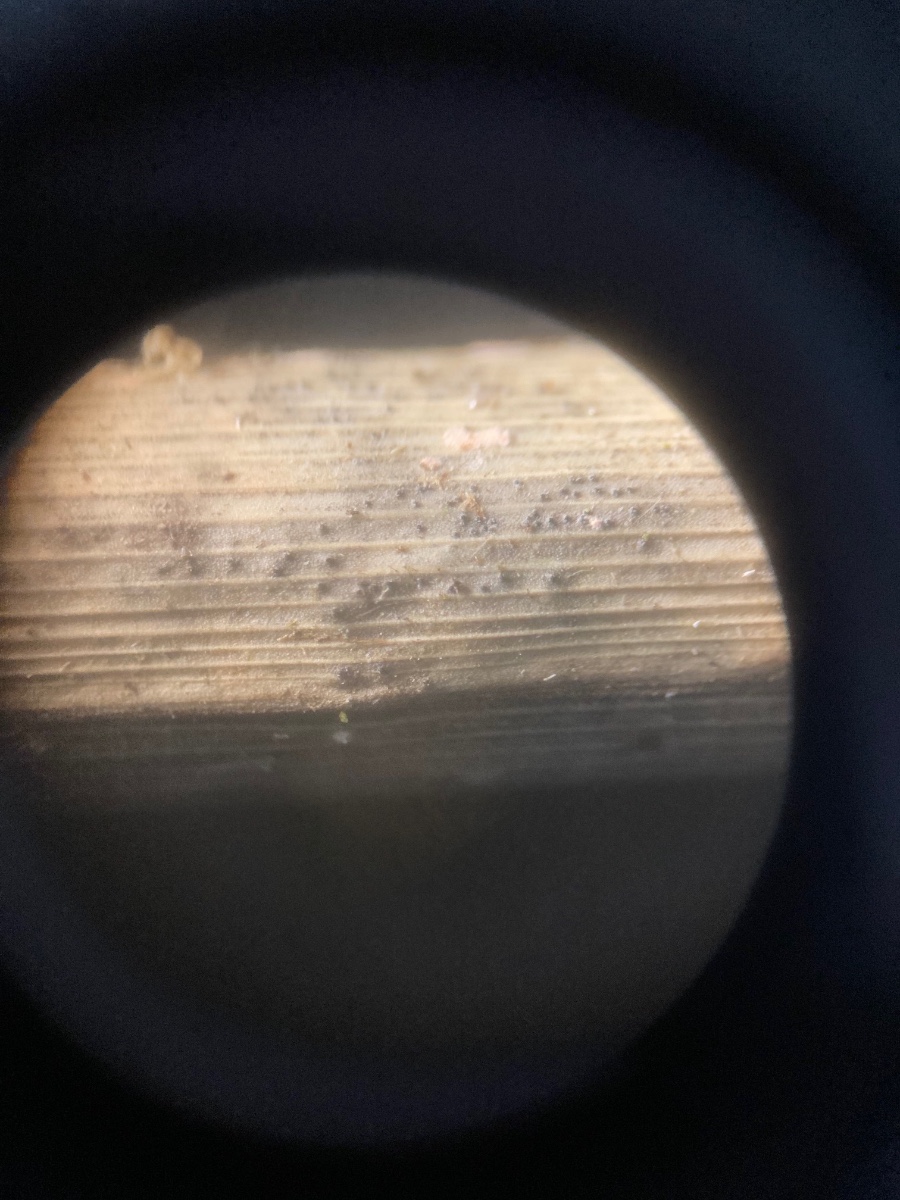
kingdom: Fungi
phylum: Ascomycota
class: Dothideomycetes
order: Pleosporales
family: Leptosphaeriaceae
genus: Leptosphaeria
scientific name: Leptosphaeria culmifraga
